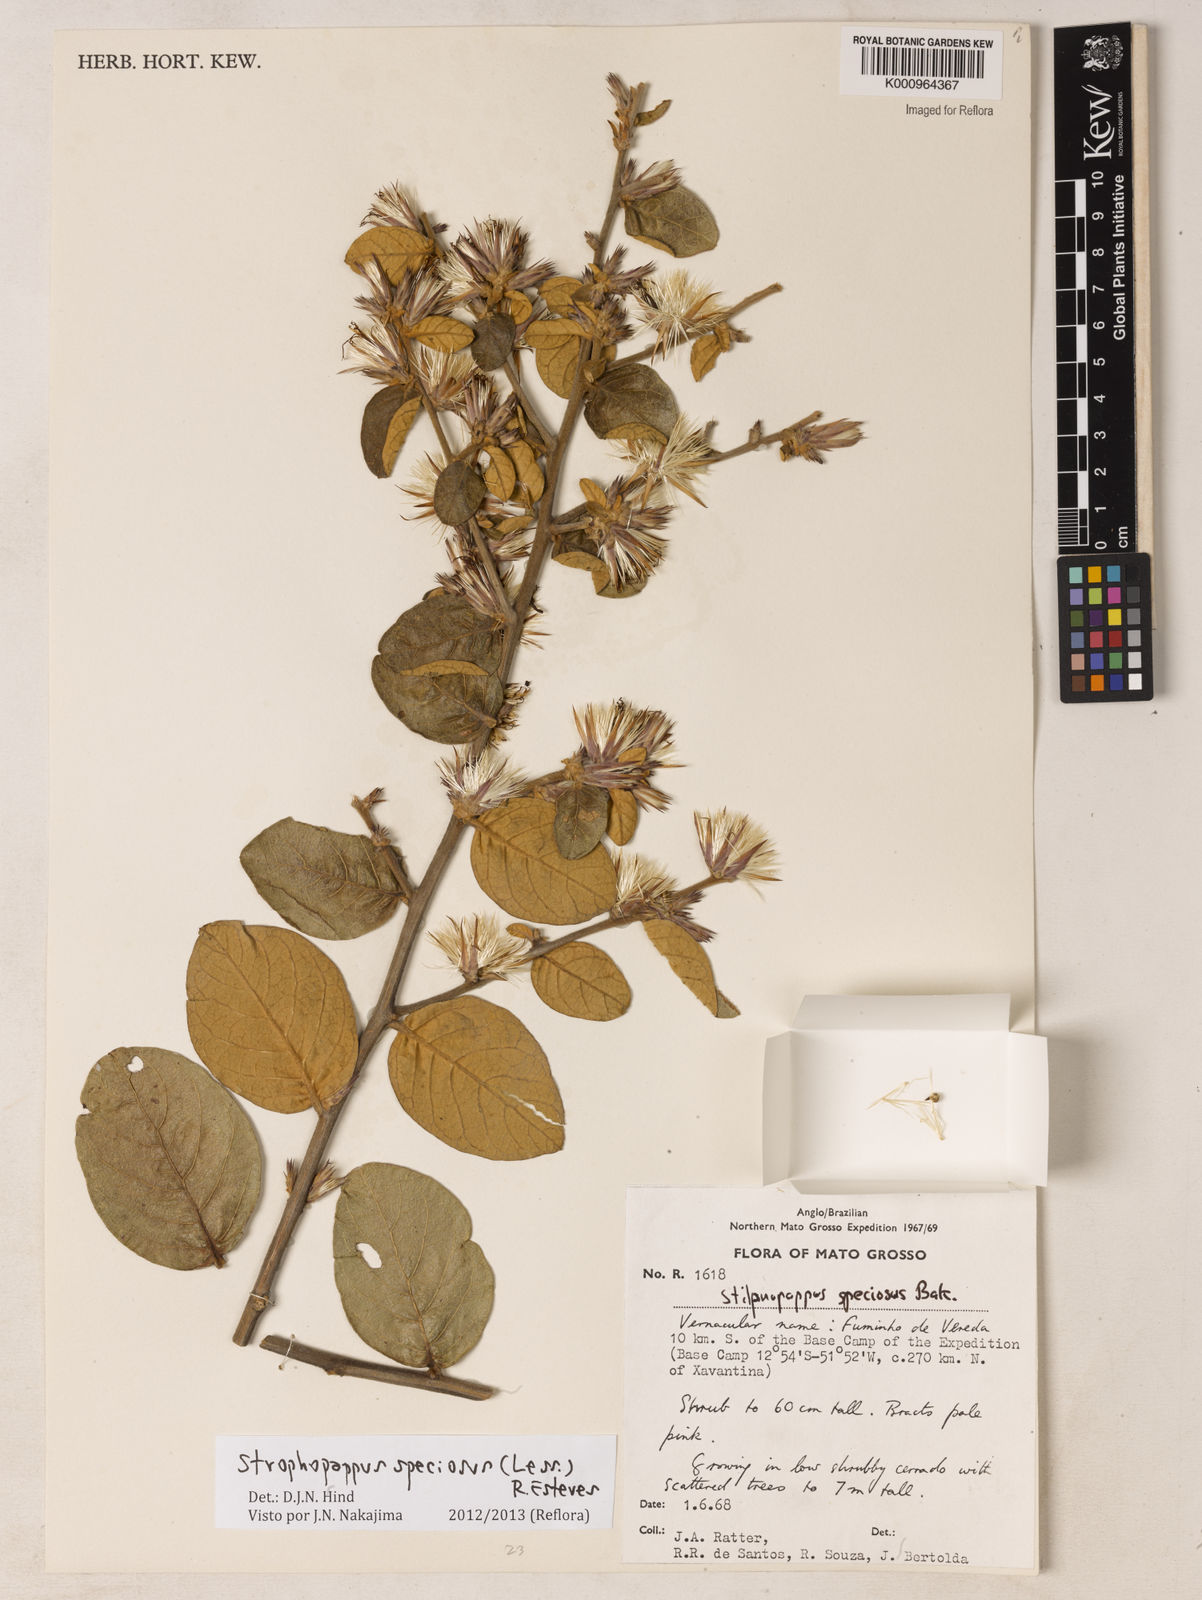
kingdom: Plantae
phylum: Tracheophyta
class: Magnoliopsida
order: Asterales
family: Asteraceae
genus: Stilpnopappus
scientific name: Stilpnopappus speciosus
